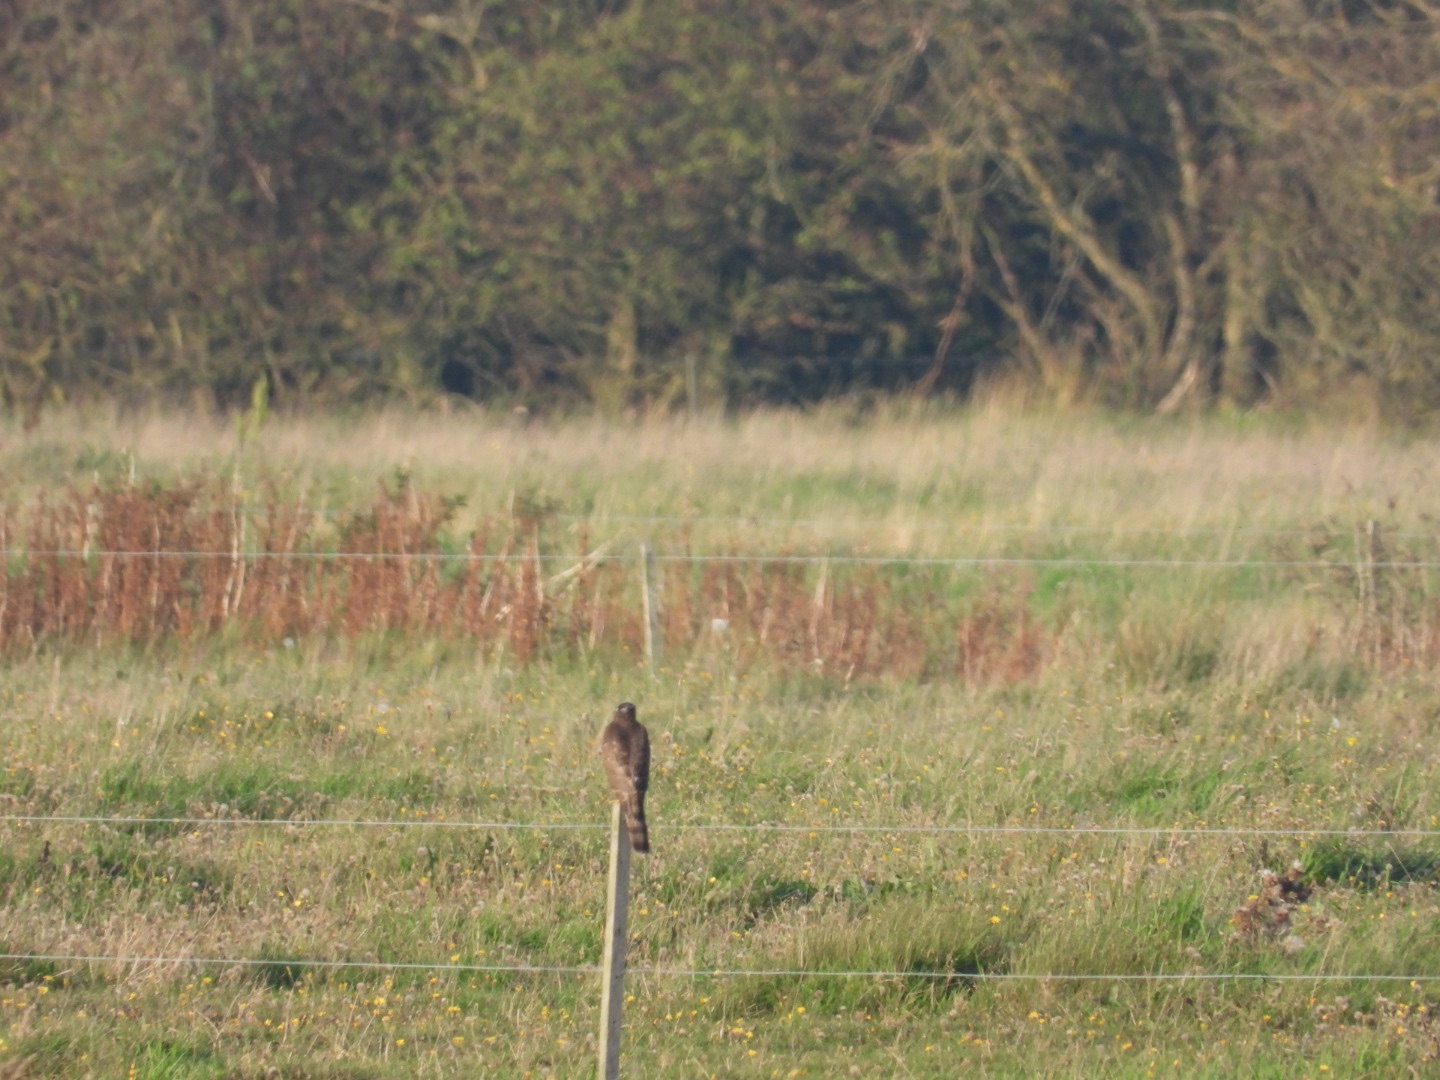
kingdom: Animalia
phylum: Chordata
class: Aves
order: Accipitriformes
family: Accipitridae
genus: Accipiter
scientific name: Accipiter nisus
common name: Spurvehøg
